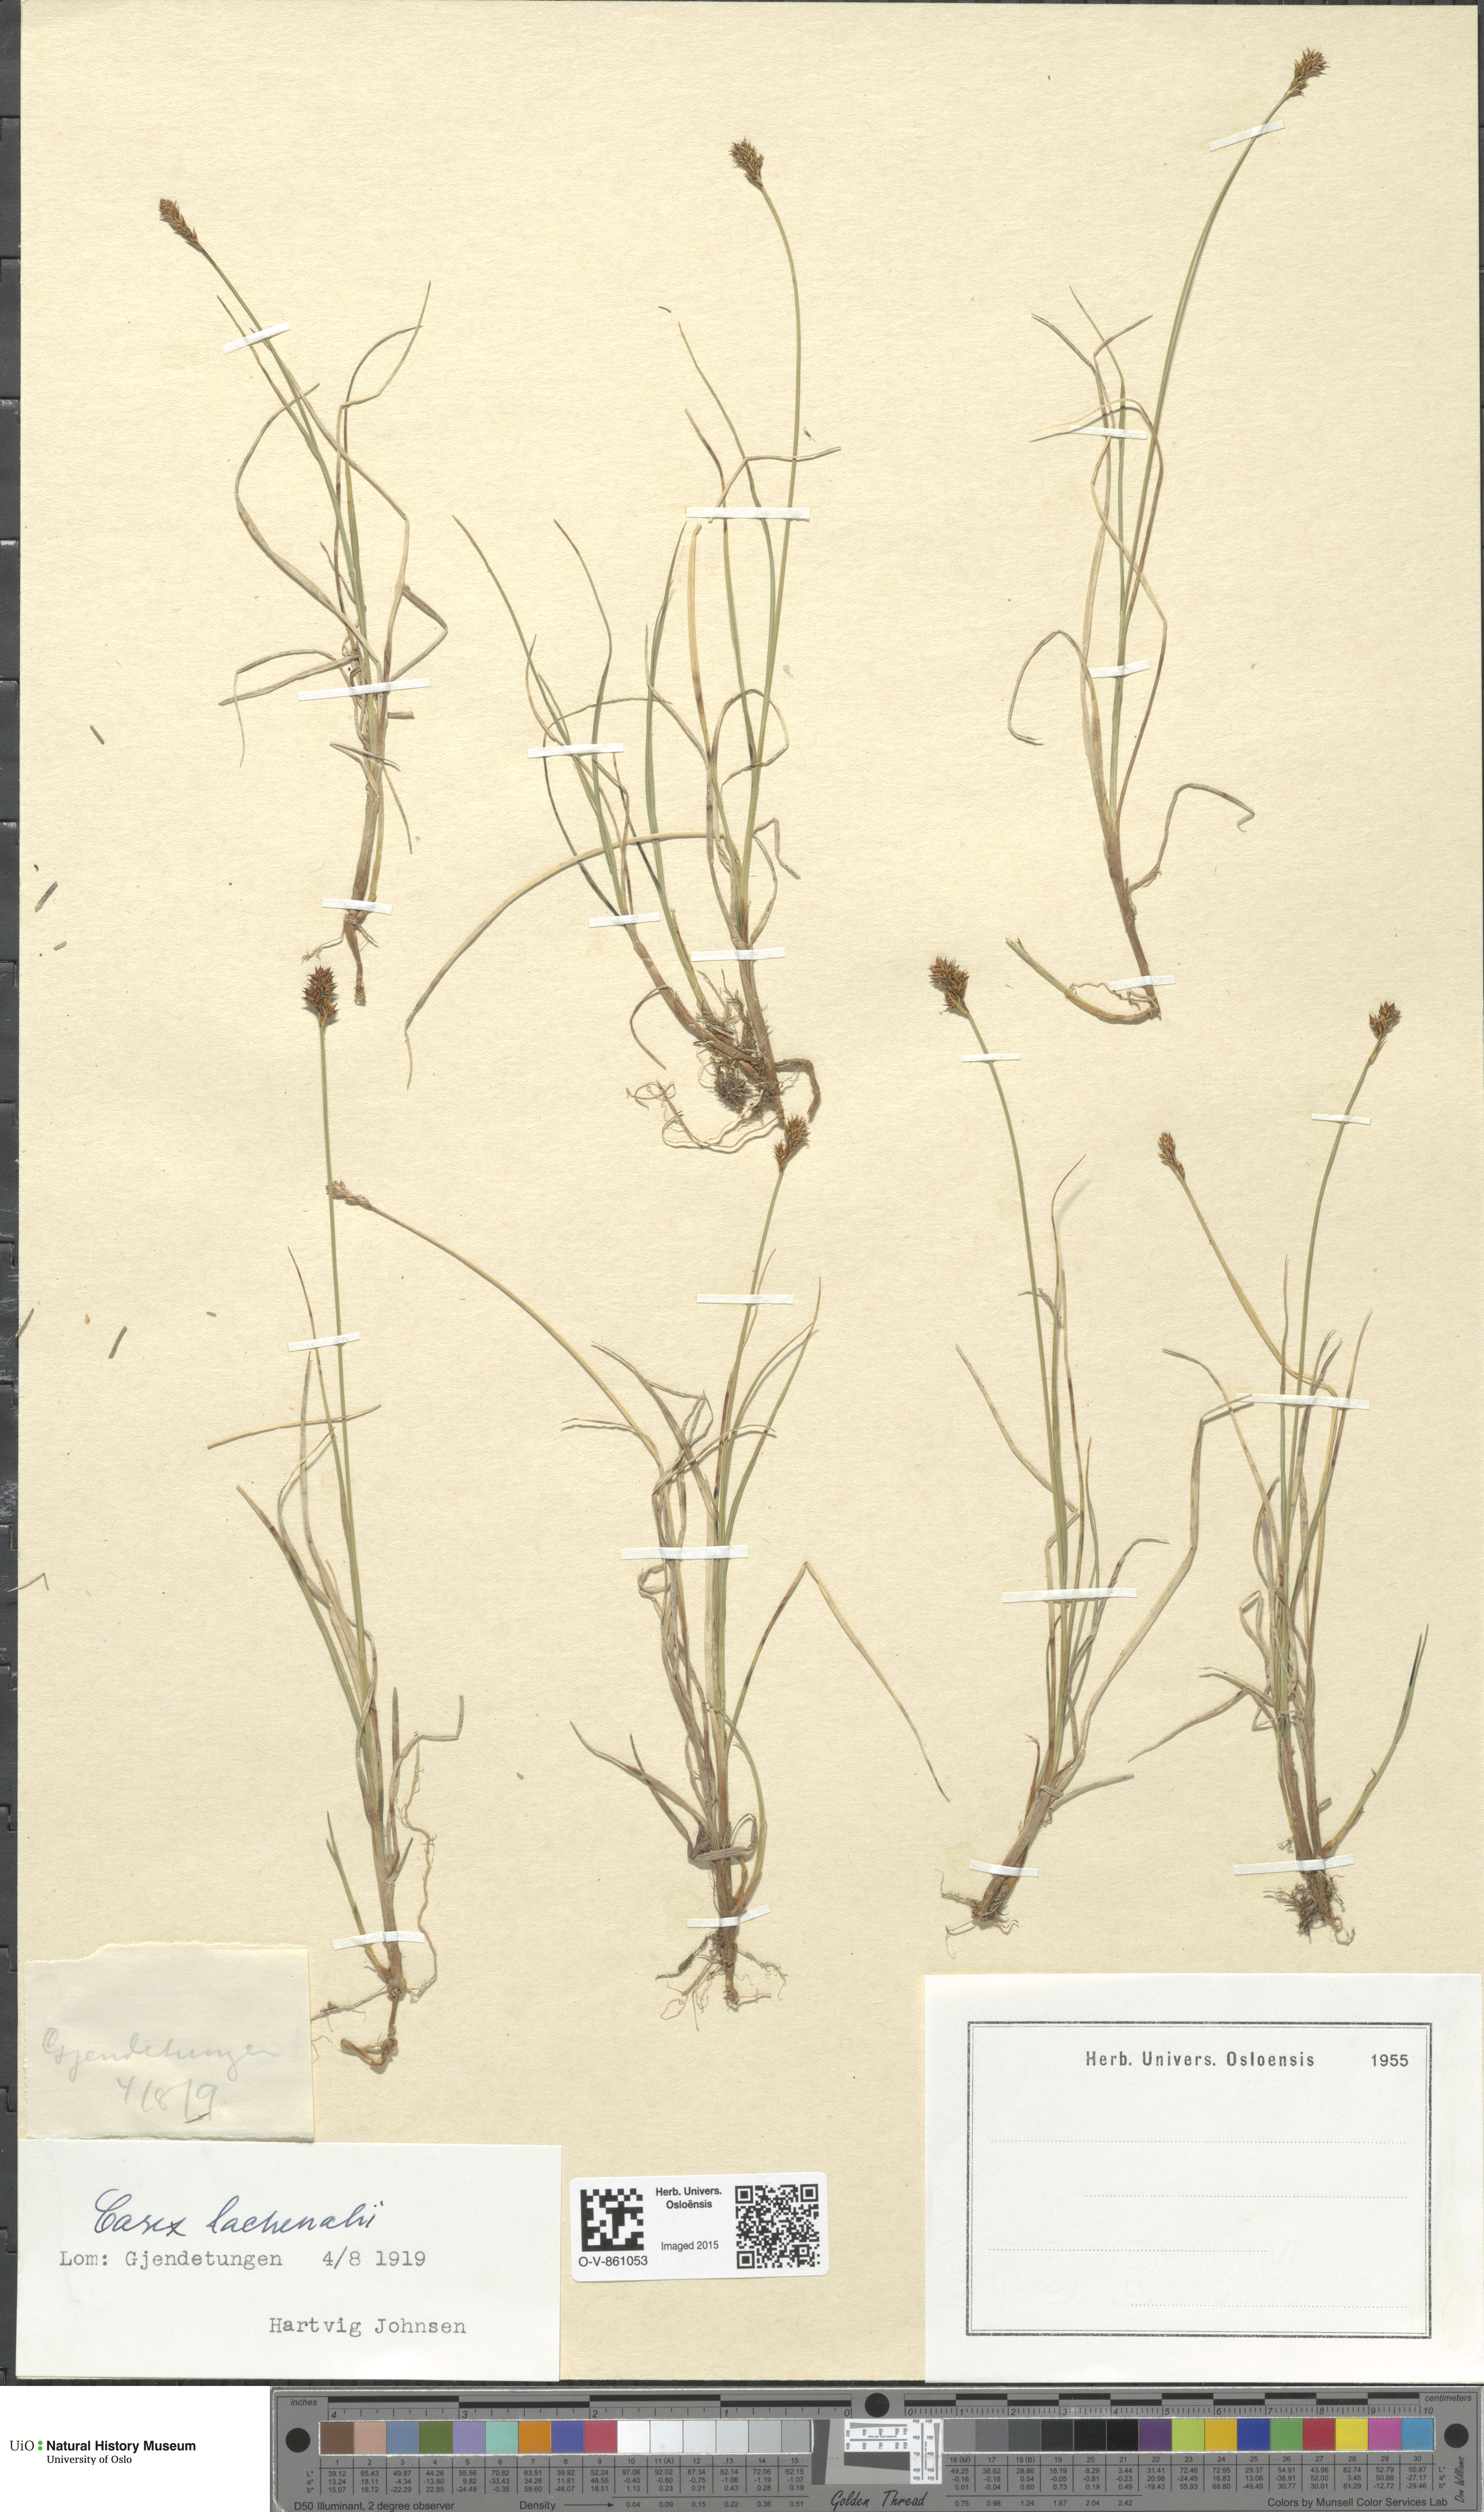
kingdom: Plantae
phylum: Tracheophyta
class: Liliopsida
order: Poales
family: Cyperaceae
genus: Carex
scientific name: Carex lachenalii
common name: Hare's-foot sedge
